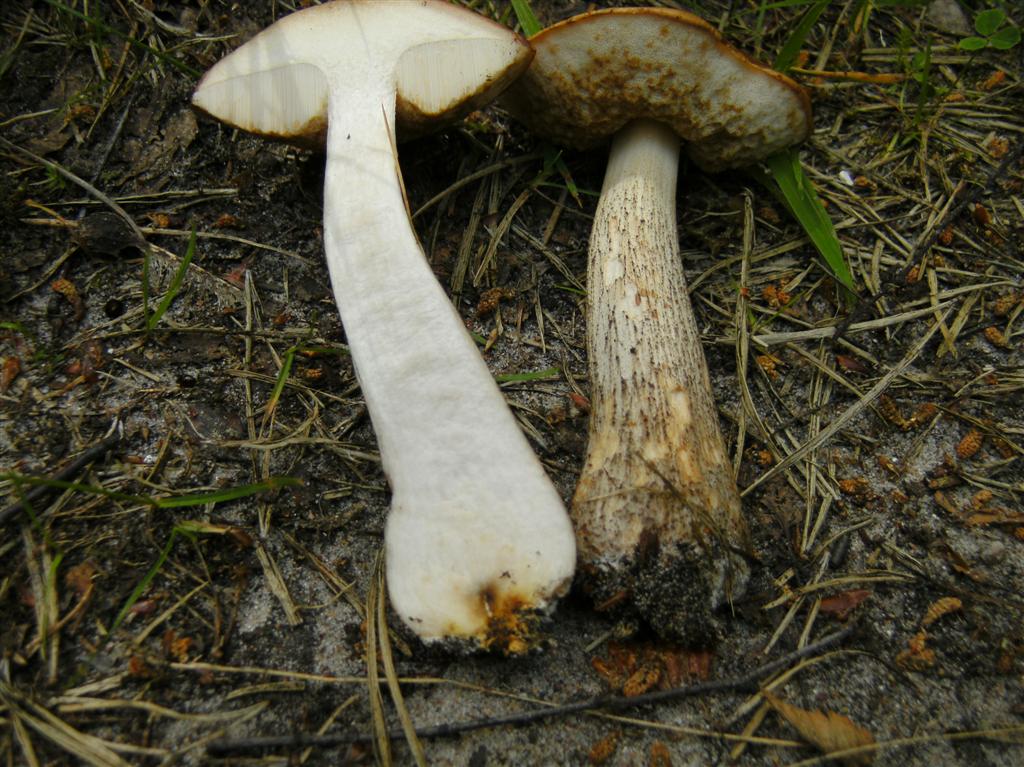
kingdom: Fungi
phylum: Basidiomycota
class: Agaricomycetes
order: Boletales
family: Boletaceae
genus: Leccinum
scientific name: Leccinum scabrum
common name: brun skælrørhat
